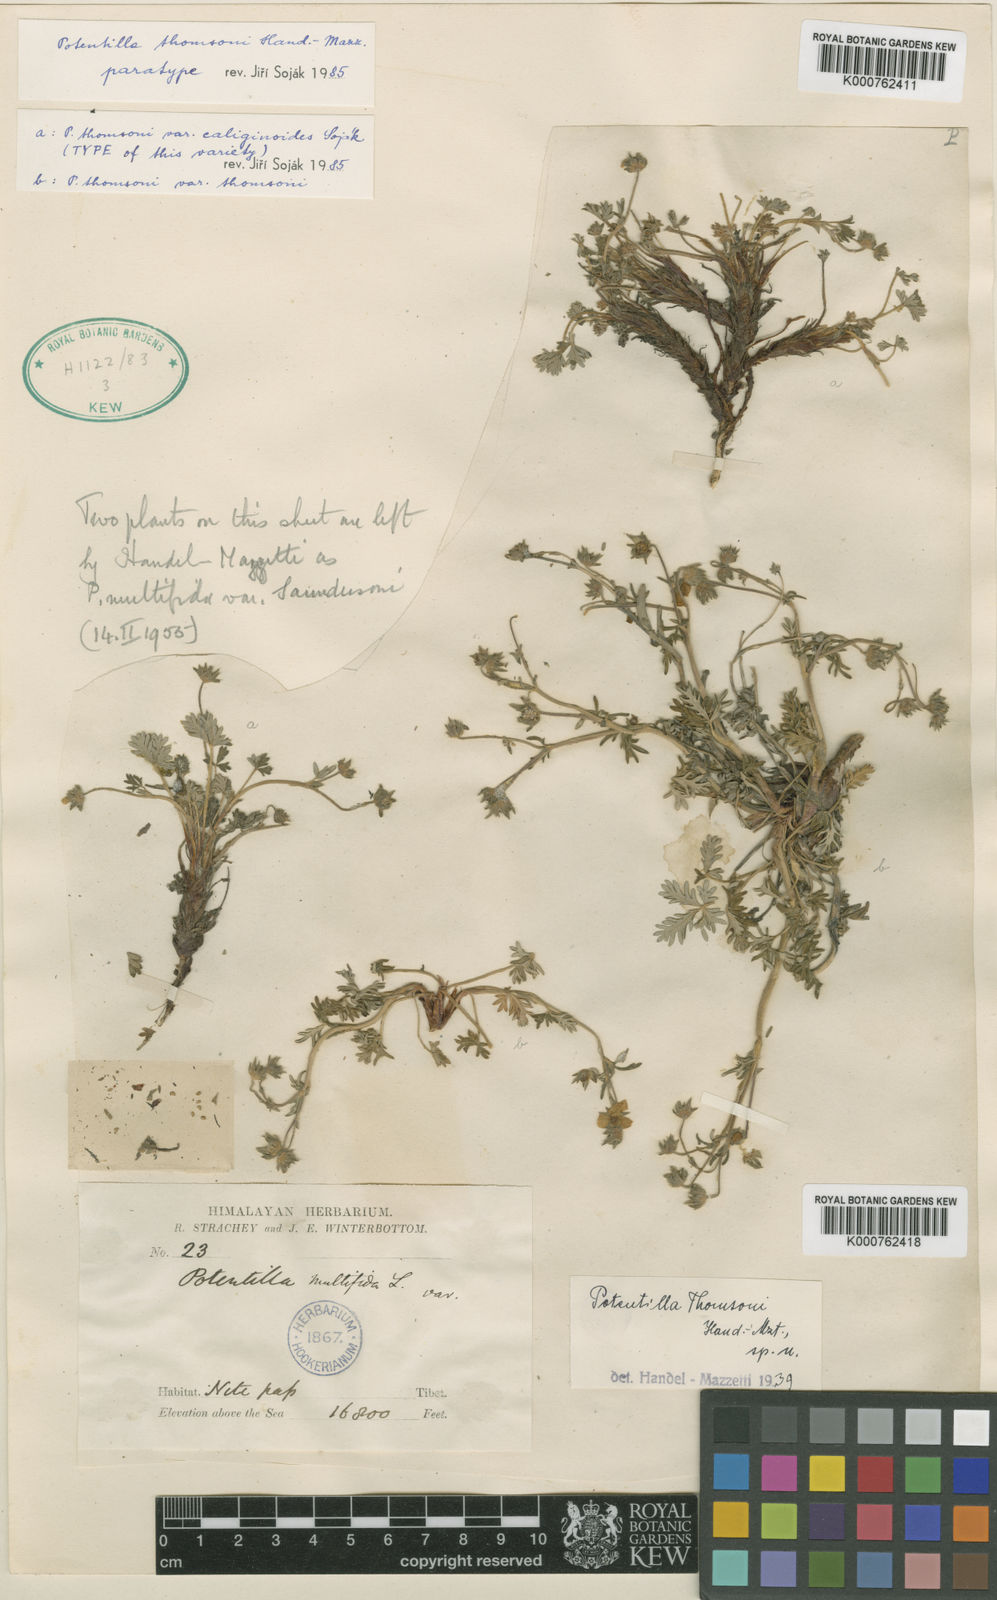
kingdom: Plantae
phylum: Tracheophyta
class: Magnoliopsida
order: Rosales
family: Rosaceae
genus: Potentilla
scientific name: Potentilla pamirica
